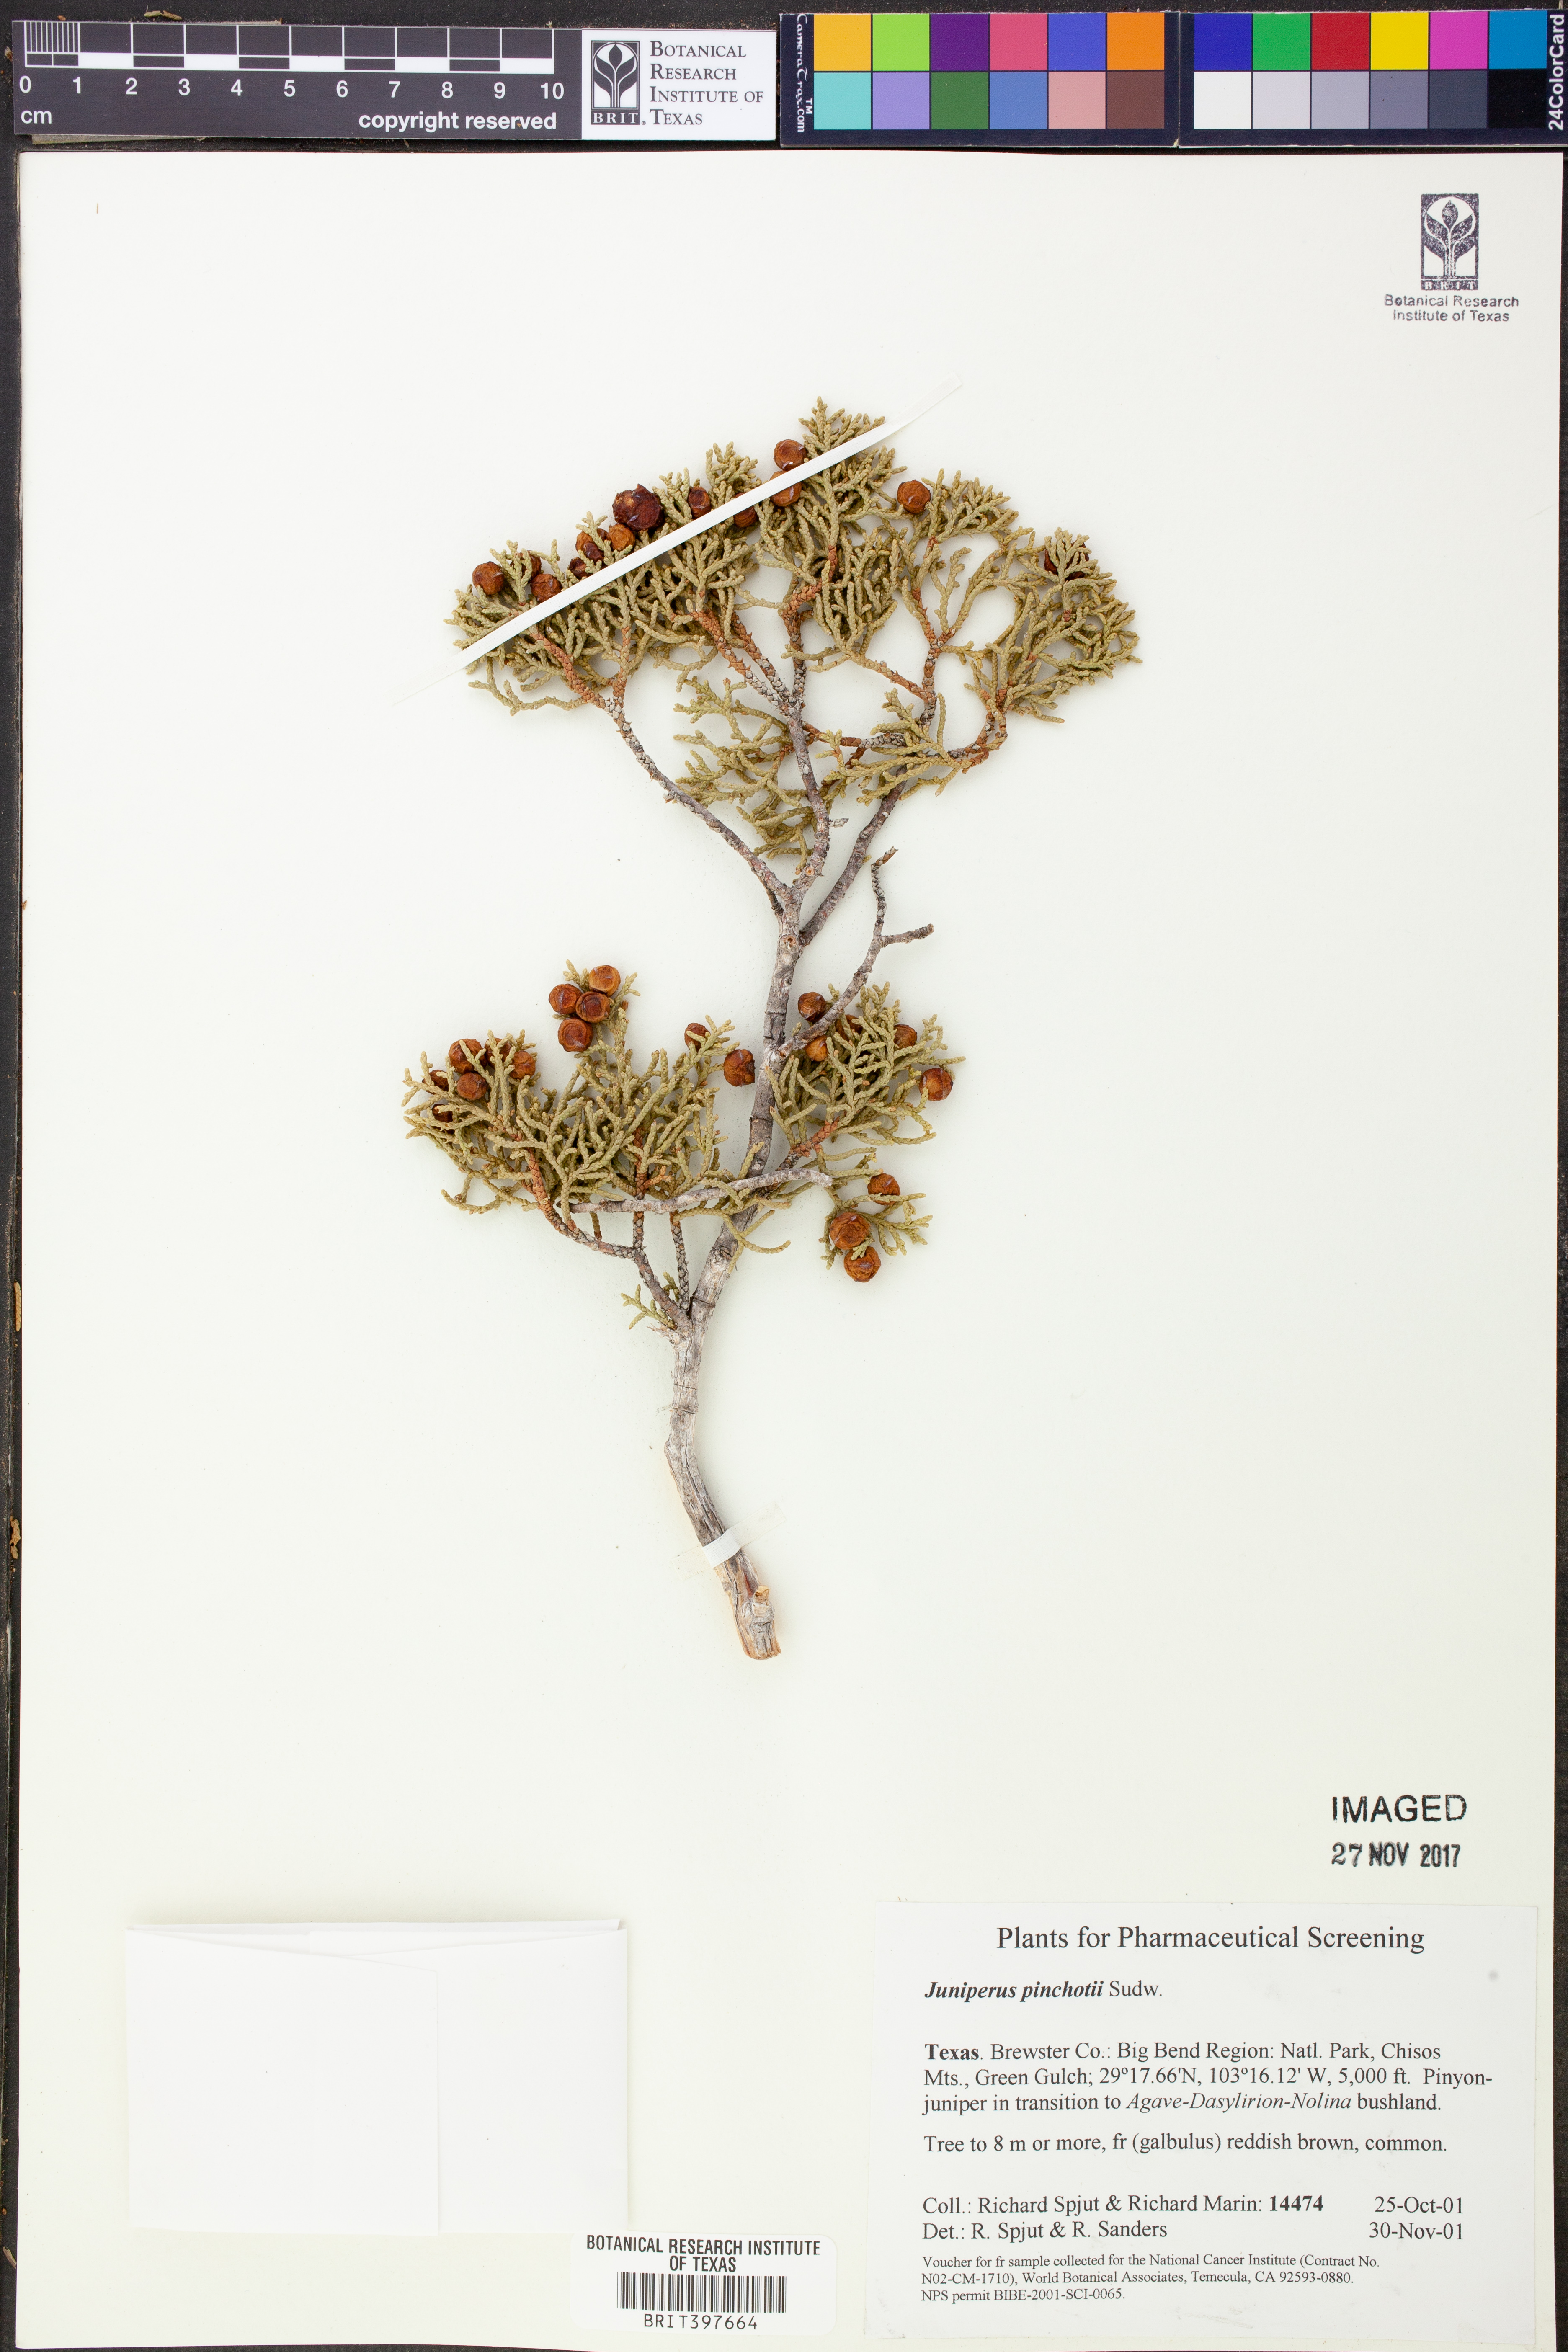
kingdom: Plantae
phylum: Tracheophyta
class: Pinopsida
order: Pinales
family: Cupressaceae
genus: Juniperus
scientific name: Juniperus pinchotii
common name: Pinchot juniper
